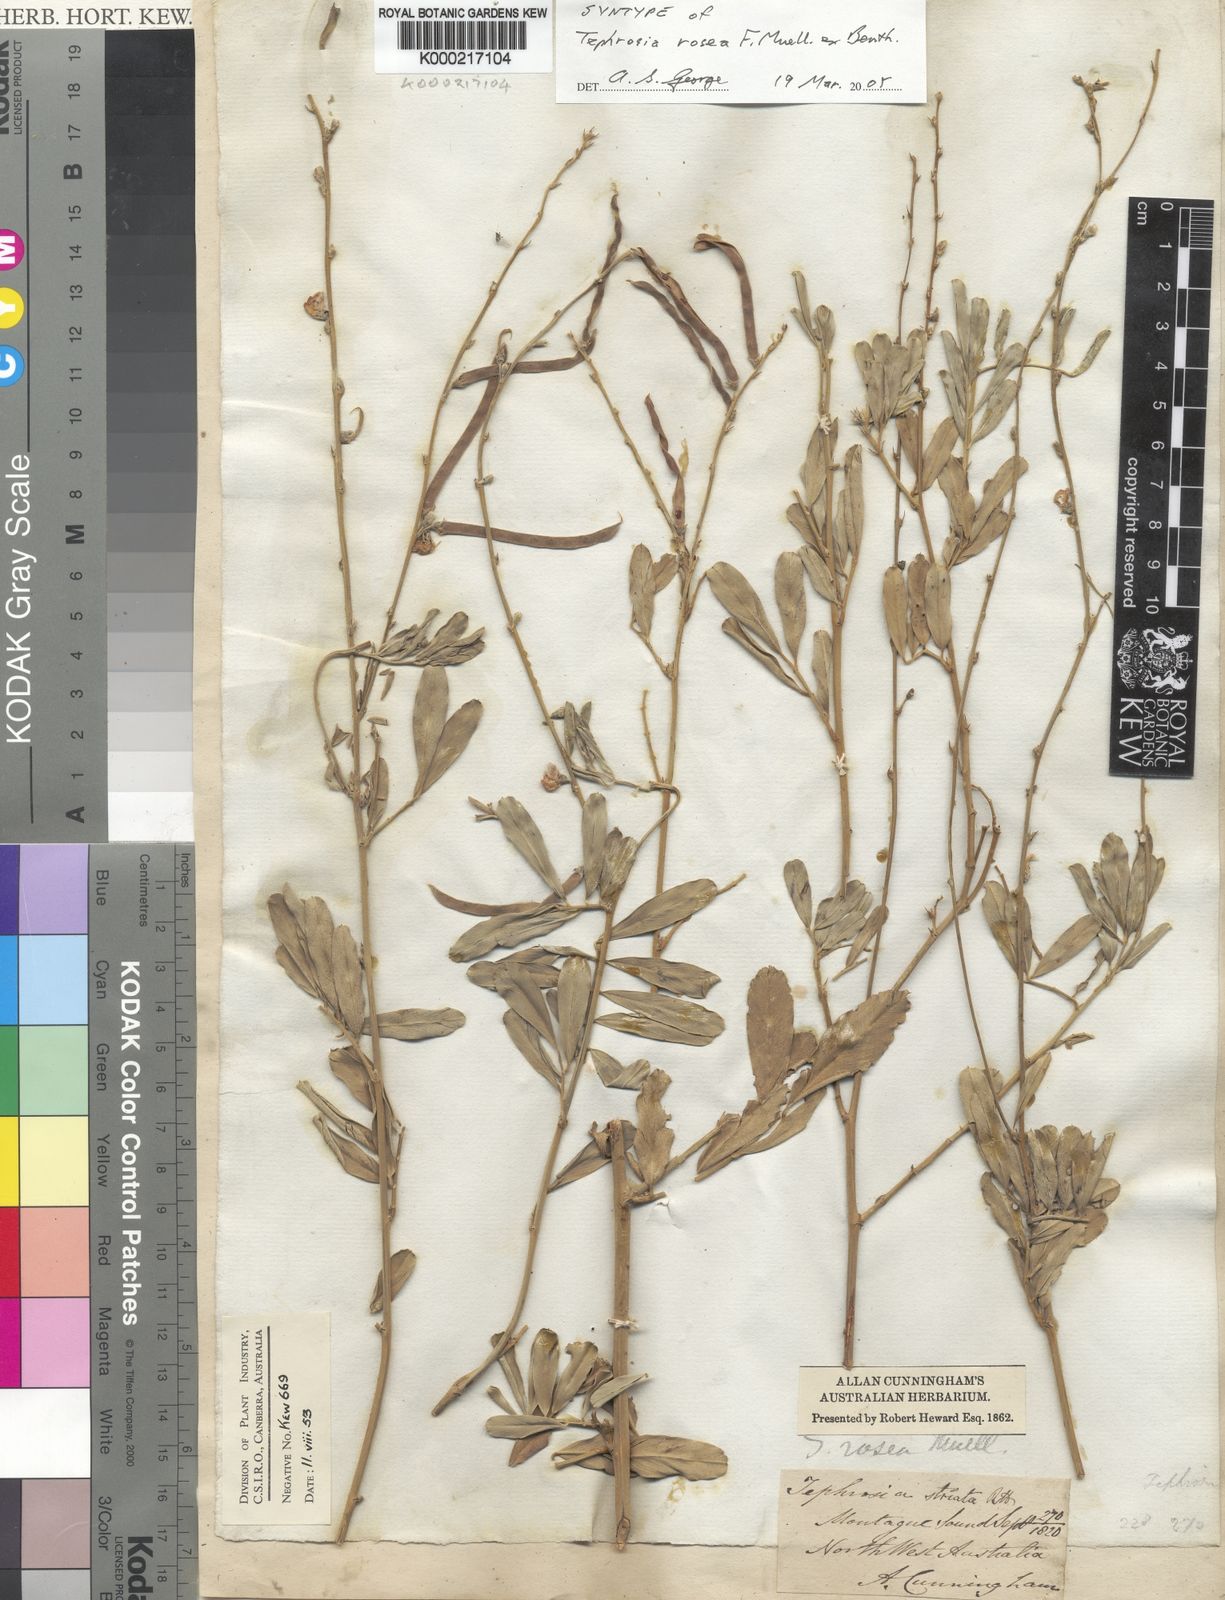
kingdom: Plantae
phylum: Tracheophyta
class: Magnoliopsida
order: Fabales
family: Fabaceae
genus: Tephrosia
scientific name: Tephrosia rosea
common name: Flinders river-poison
